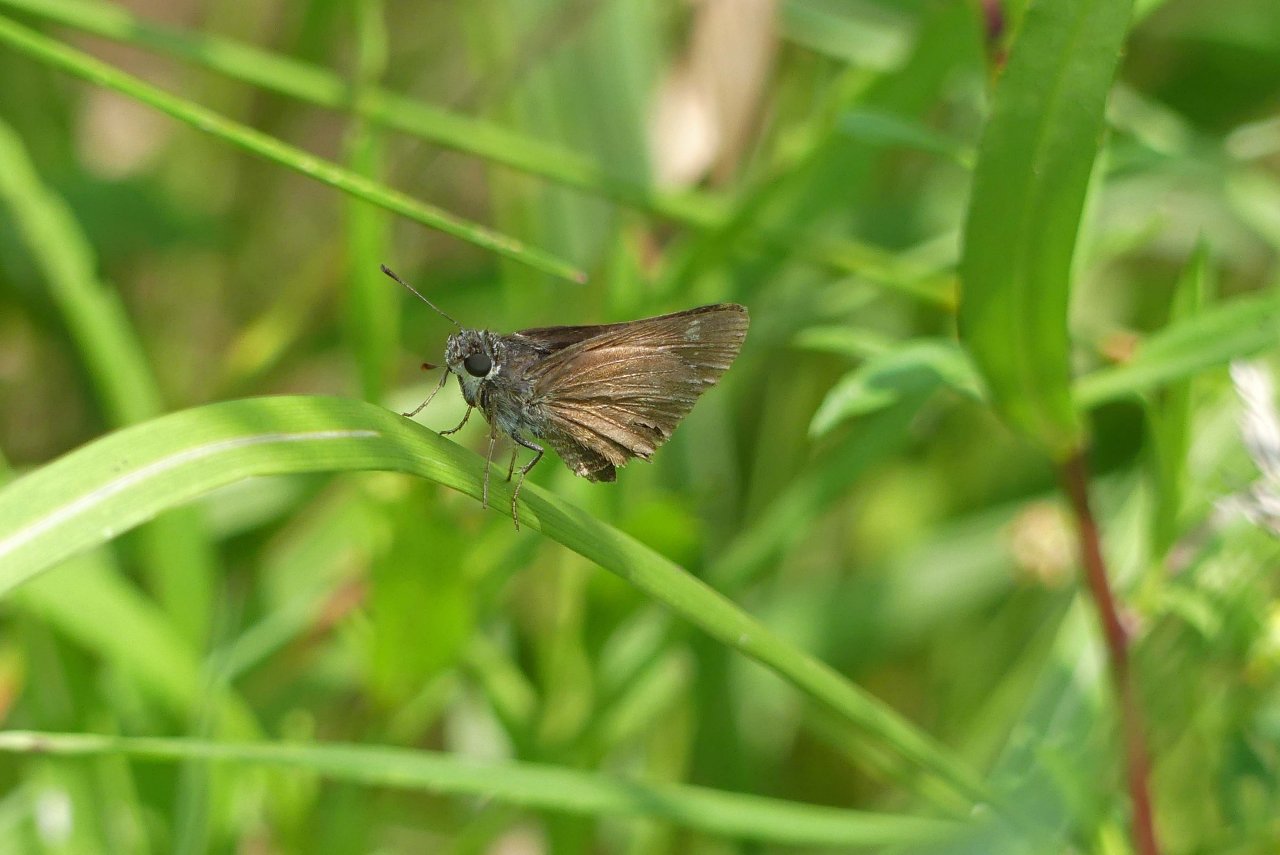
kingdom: Animalia
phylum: Arthropoda
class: Insecta
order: Lepidoptera
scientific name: Lepidoptera
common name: Butterflies
